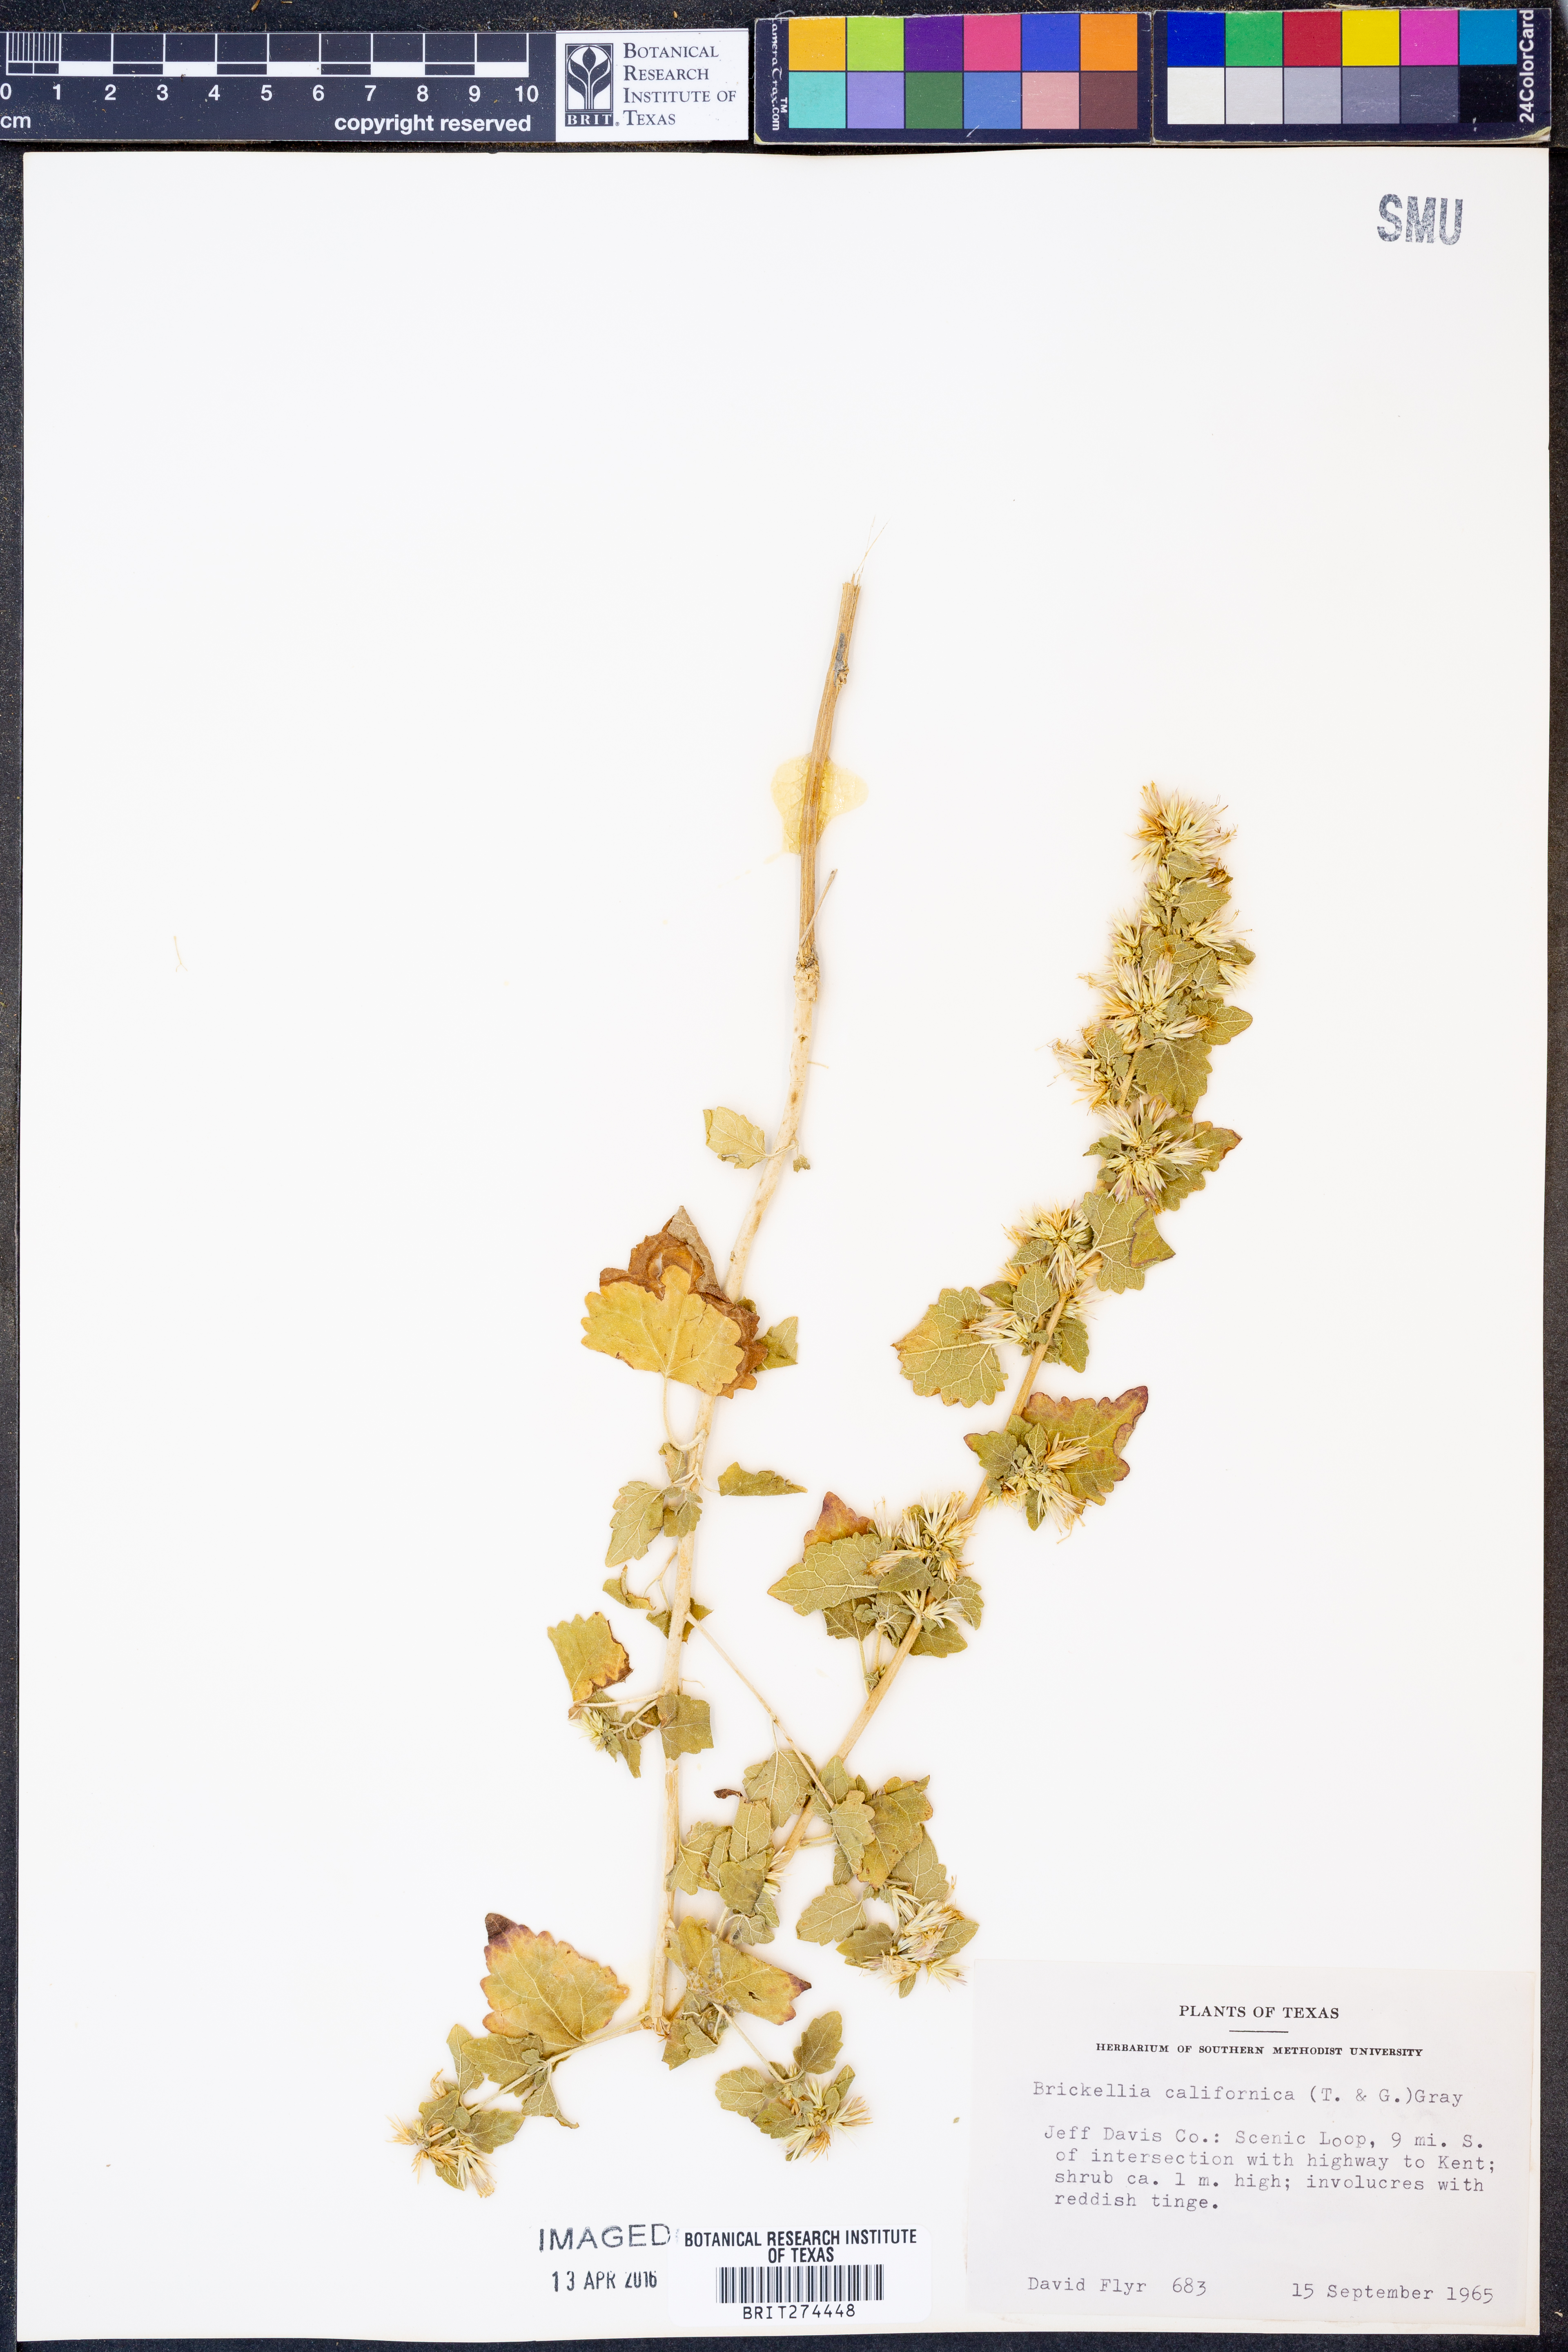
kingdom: Plantae
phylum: Tracheophyta
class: Magnoliopsida
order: Asterales
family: Asteraceae
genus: Brickellia
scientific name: Brickellia californica
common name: California brickellbush
